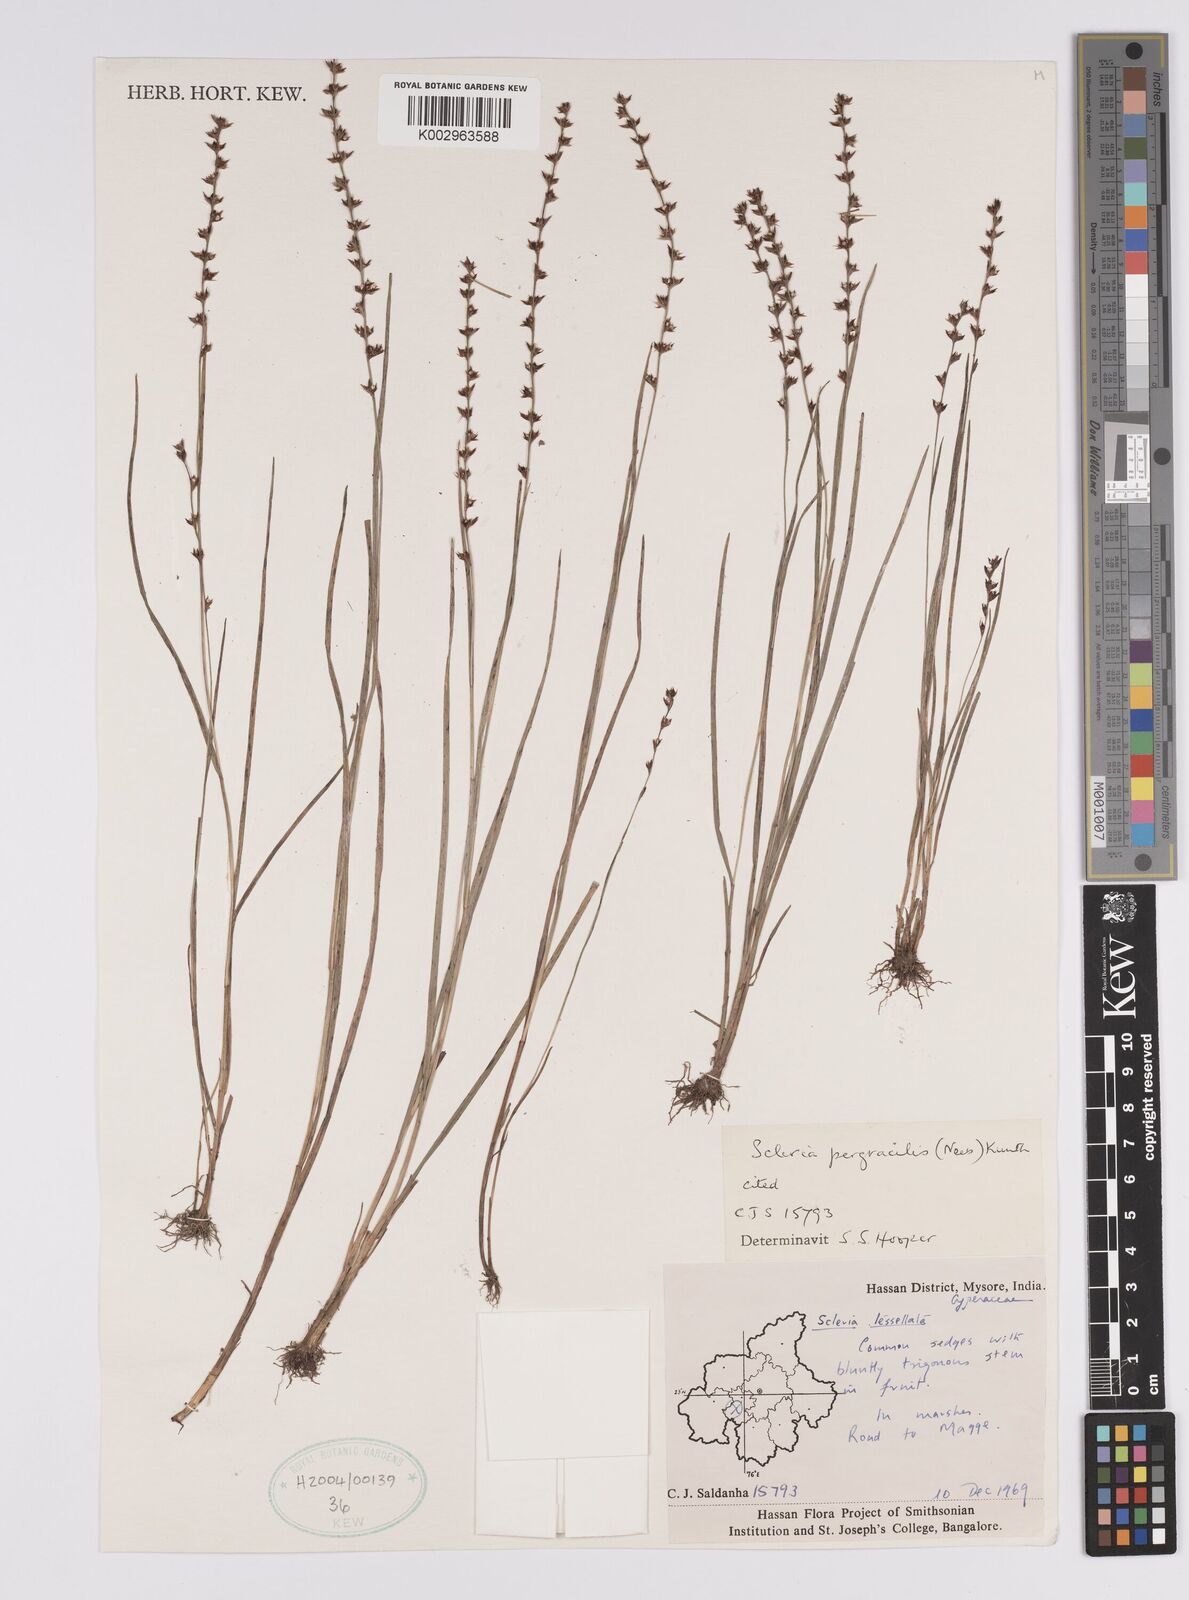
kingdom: Plantae
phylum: Tracheophyta
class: Liliopsida
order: Poales
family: Cyperaceae
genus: Scleria
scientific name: Scleria pergracilis
